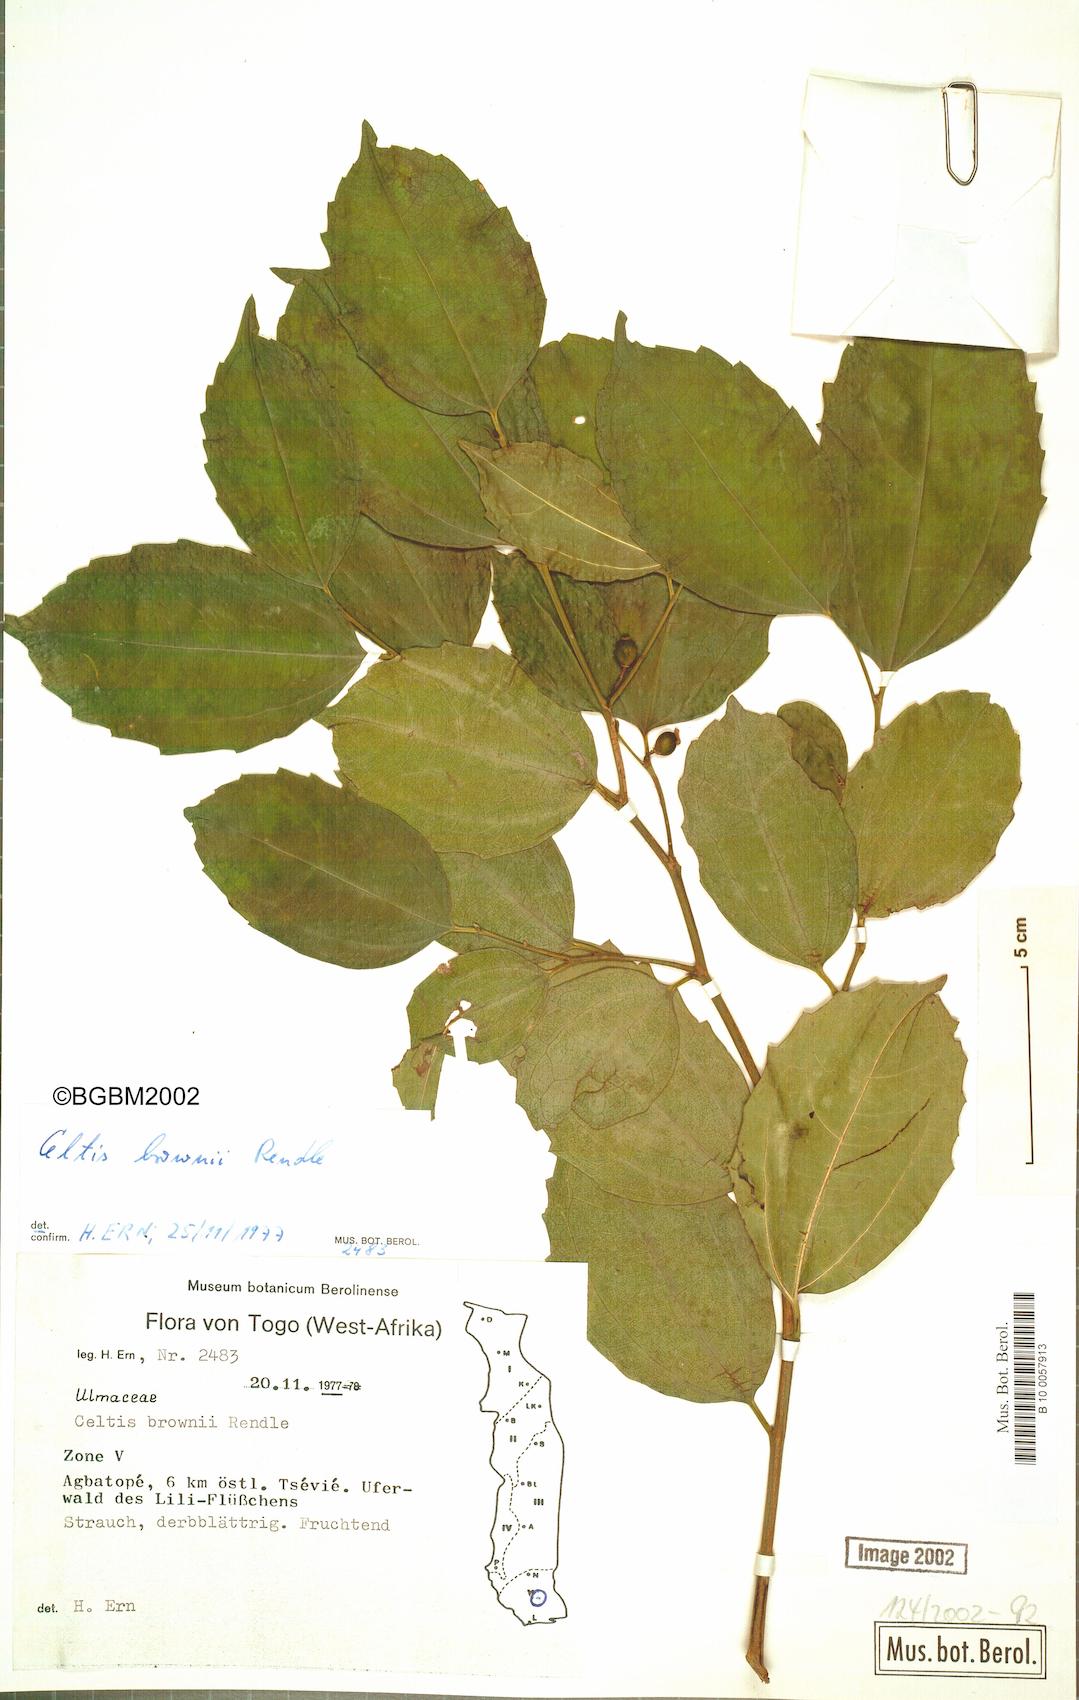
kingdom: Plantae
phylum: Tracheophyta
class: Magnoliopsida
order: Rosales
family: Cannabaceae
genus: Celtis
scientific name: Celtis philippensis
